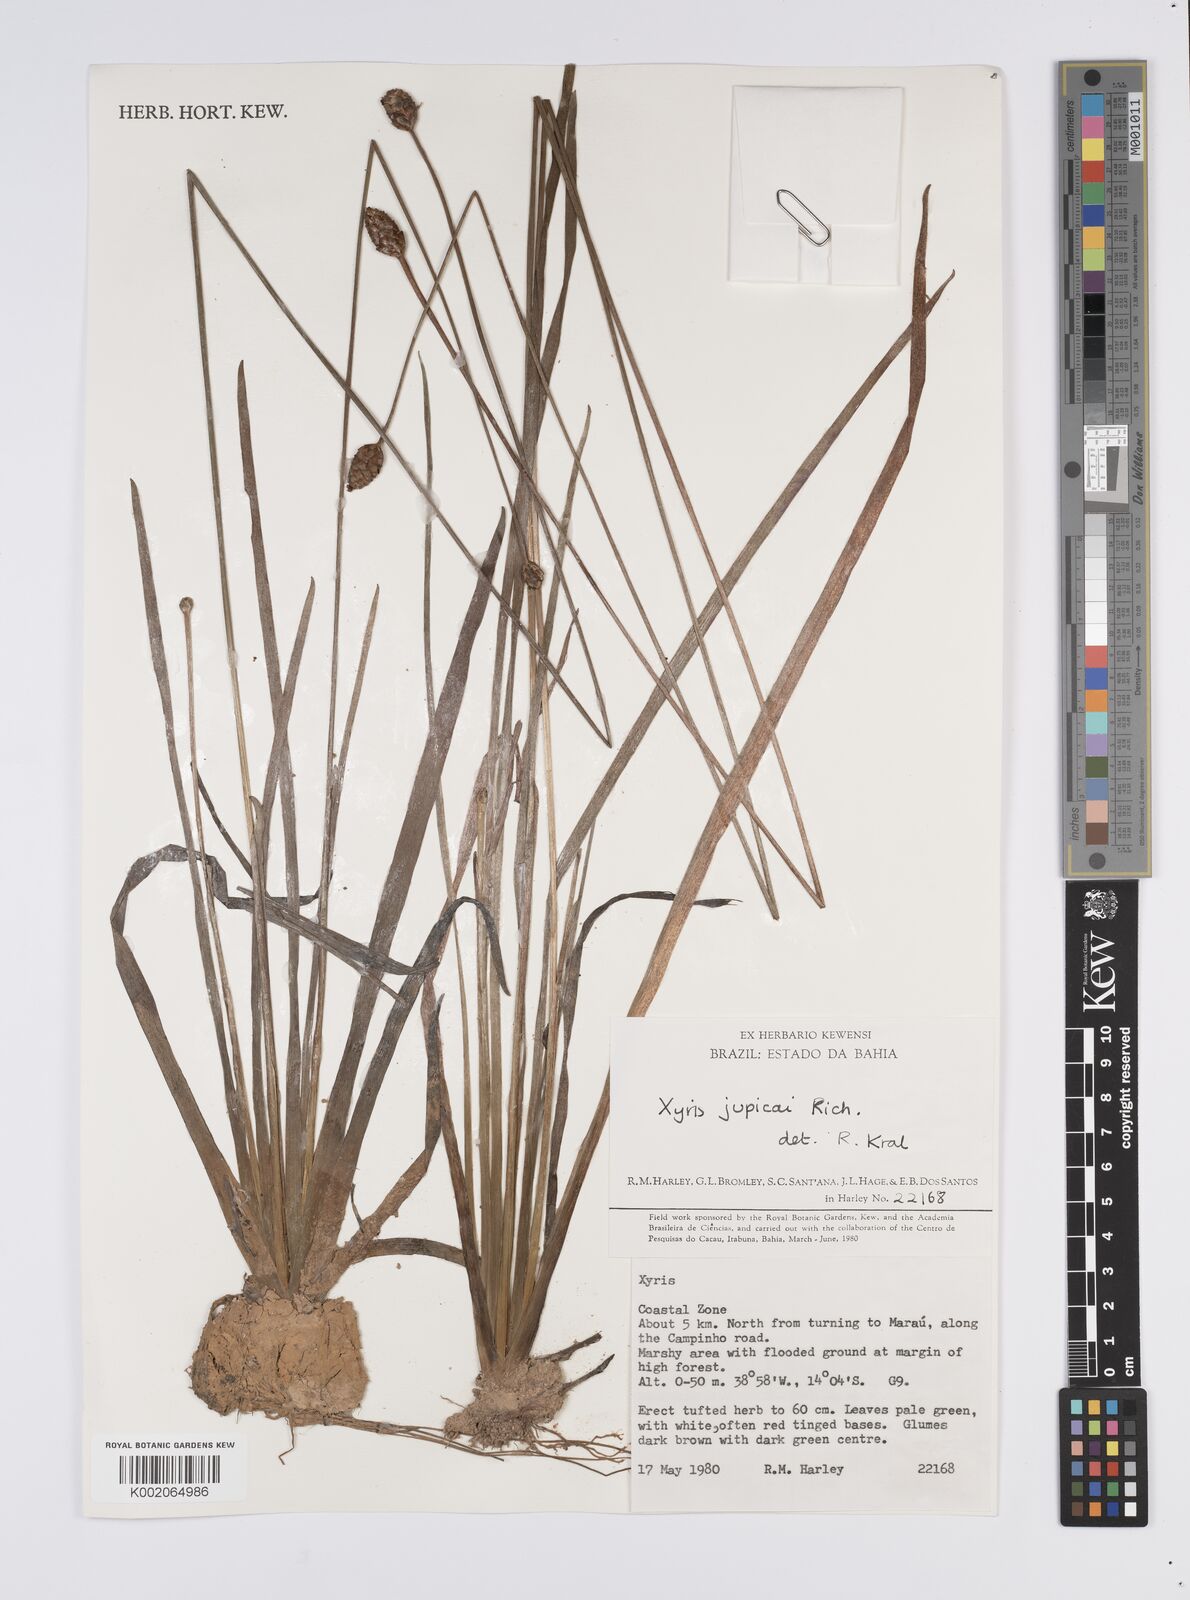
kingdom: Plantae
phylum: Tracheophyta
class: Liliopsida
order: Poales
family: Xyridaceae
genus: Xyris
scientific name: Xyris jupicai
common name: Richard's yelloweyed grass
